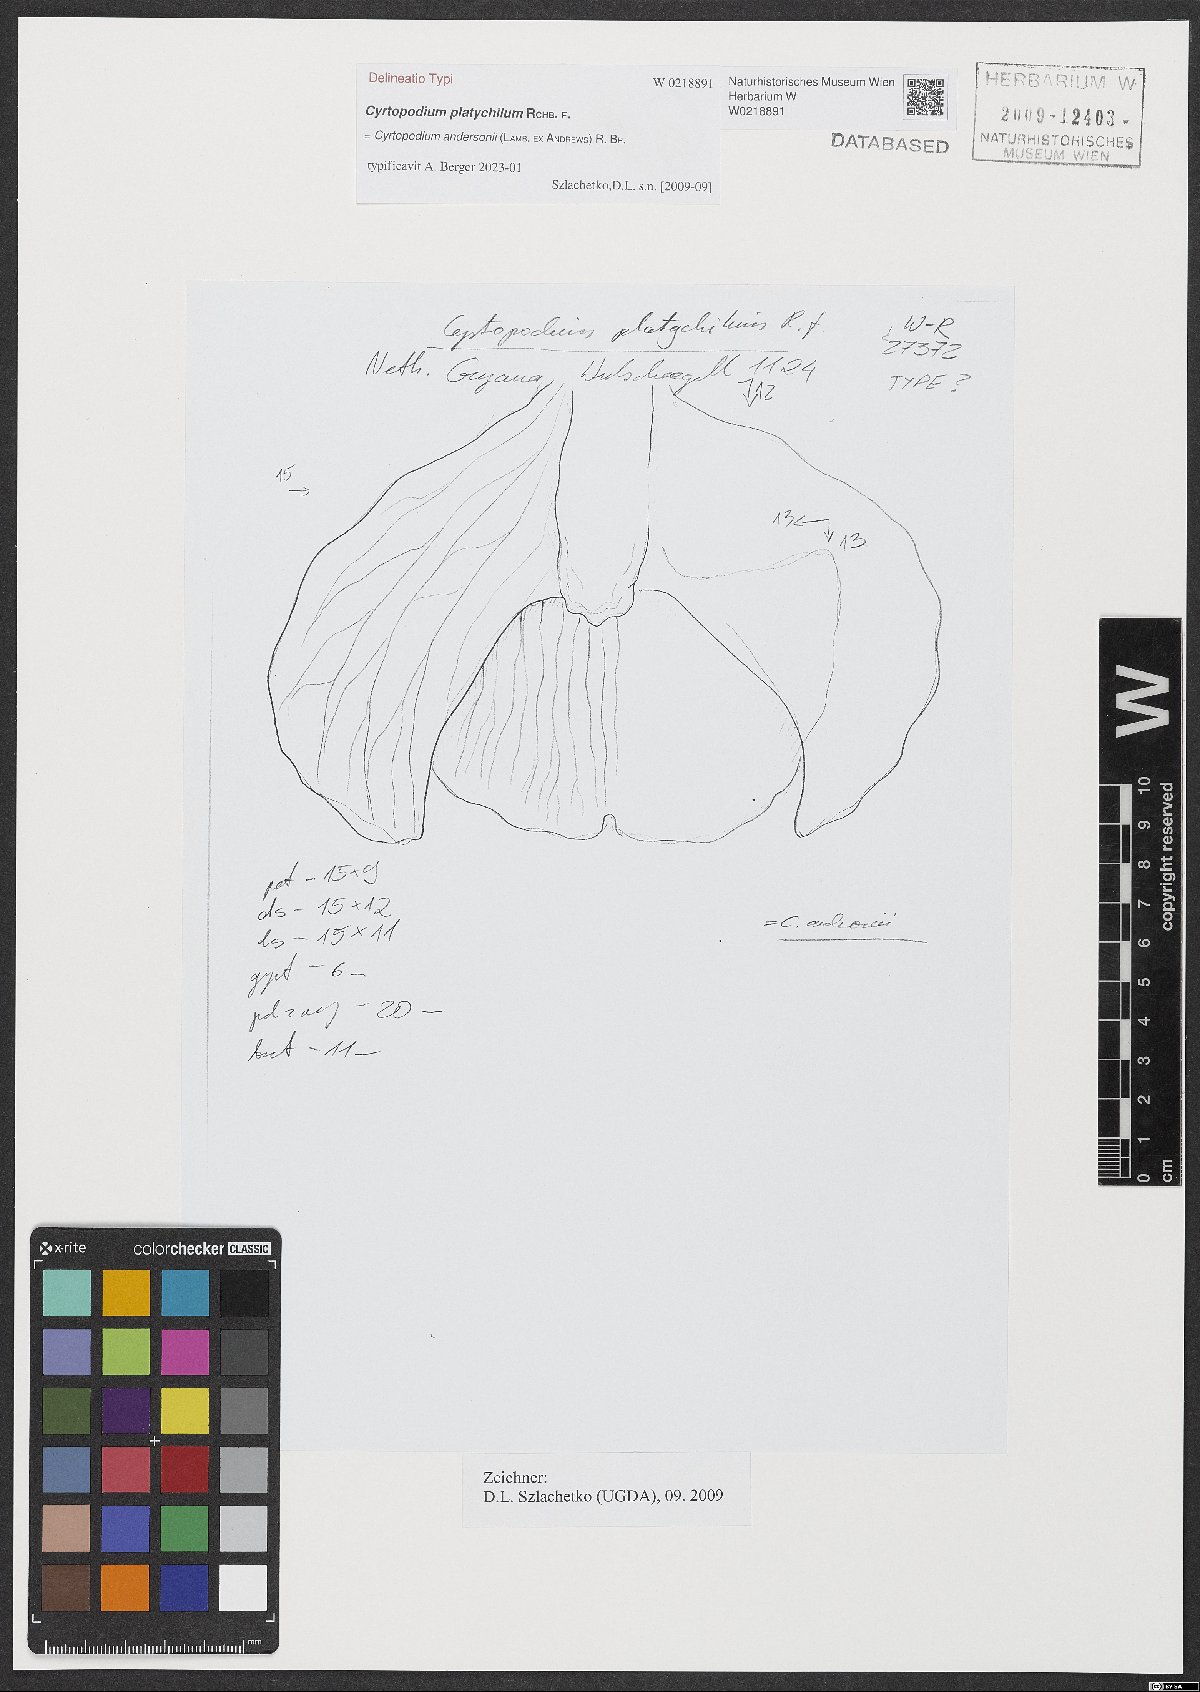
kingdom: Plantae
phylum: Tracheophyta
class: Liliopsida
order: Asparagales
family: Orchidaceae
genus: Cyrtopodium
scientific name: Cyrtopodium
